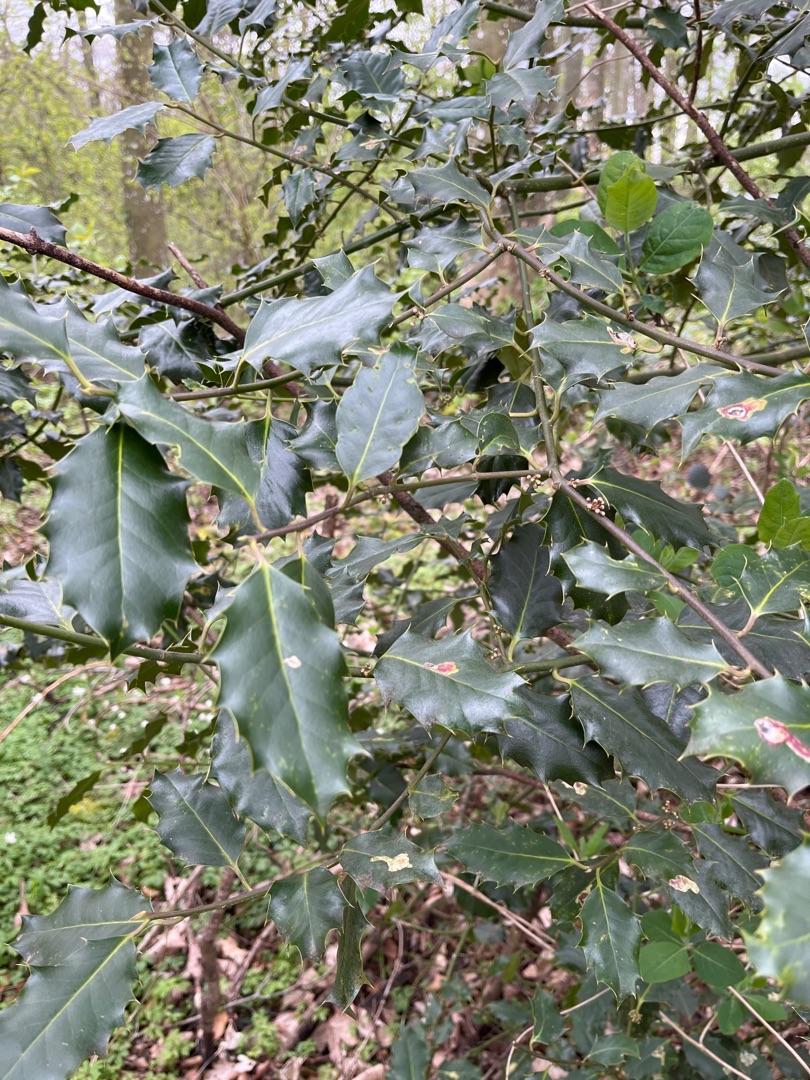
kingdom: Plantae
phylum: Tracheophyta
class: Magnoliopsida
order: Aquifoliales
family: Aquifoliaceae
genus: Ilex
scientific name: Ilex aquifolium
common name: Kristtorn
